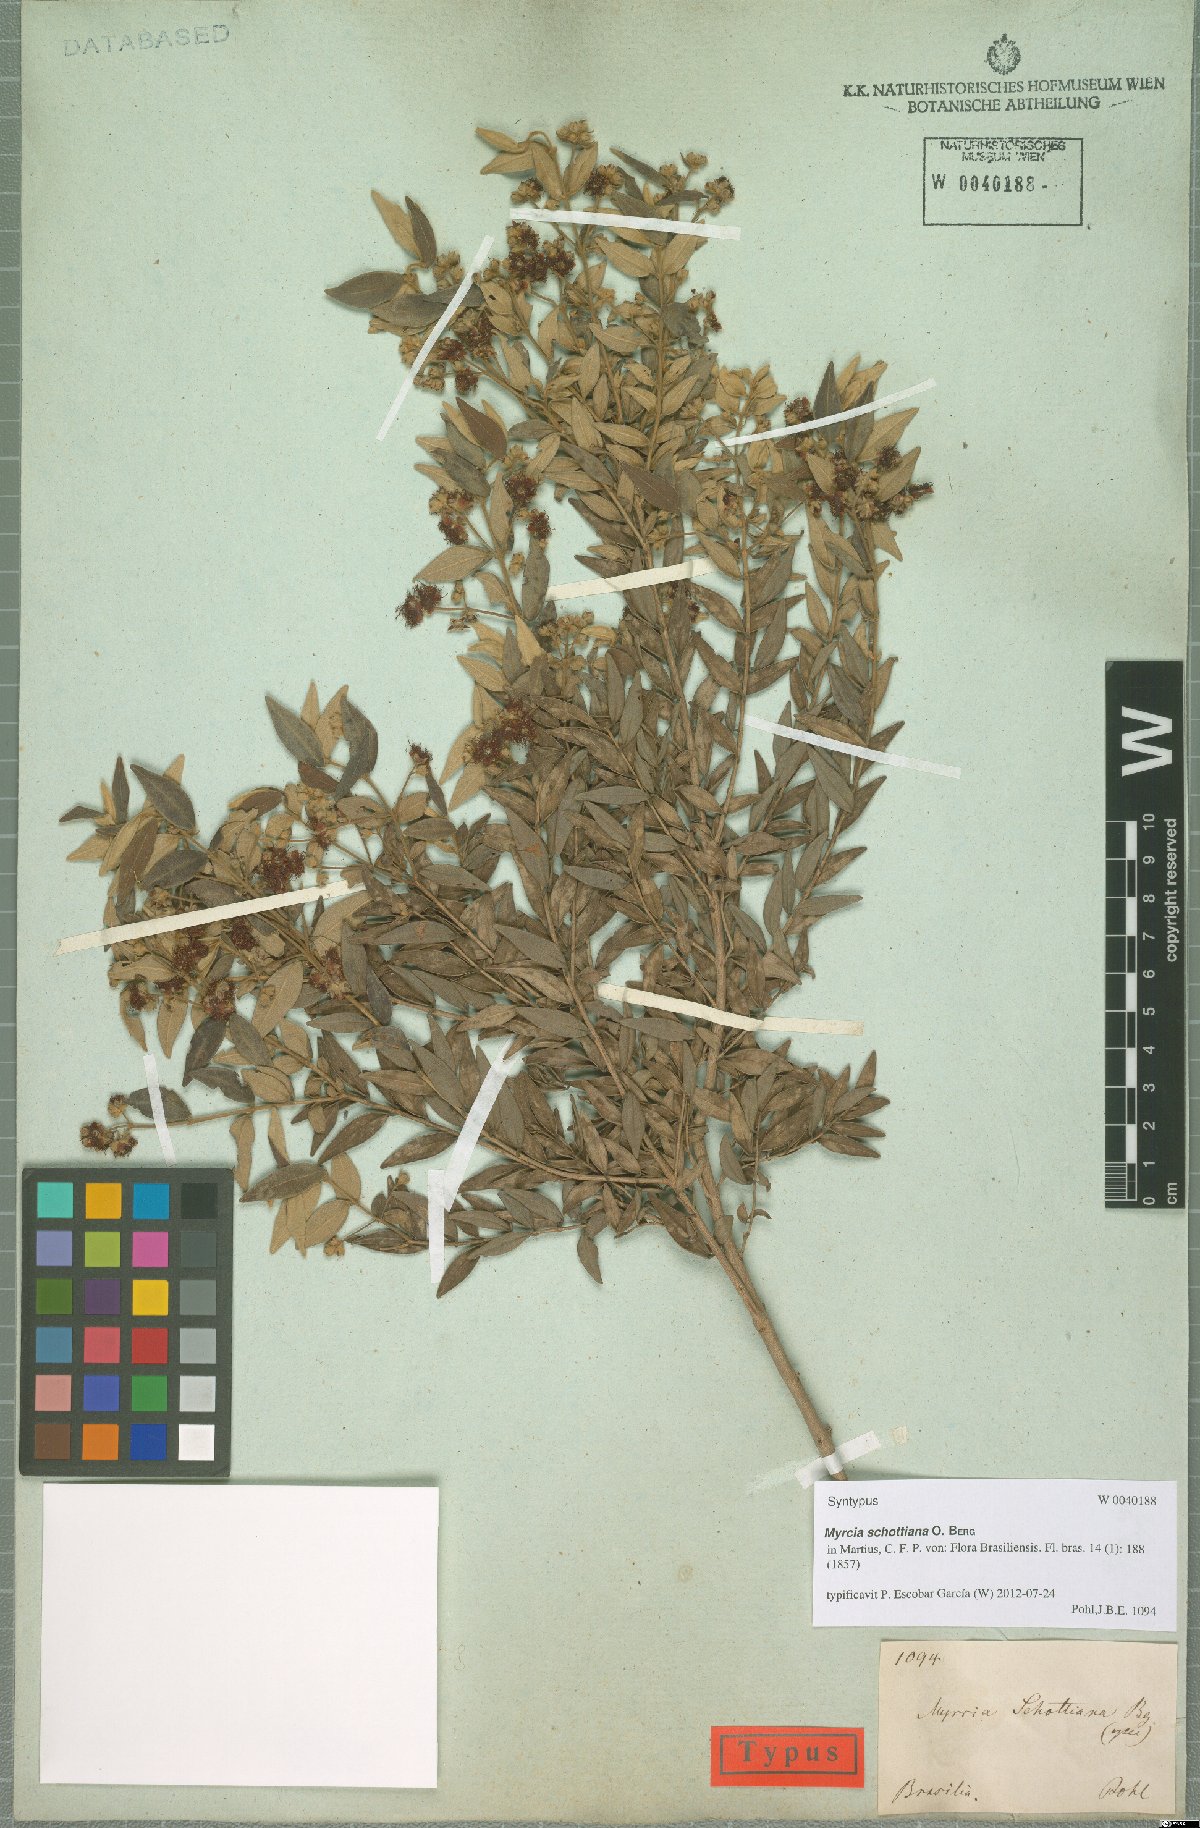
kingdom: Plantae
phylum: Tracheophyta
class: Magnoliopsida
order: Myrtales
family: Myrtaceae
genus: Myrcia
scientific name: Myrcia schottiana
